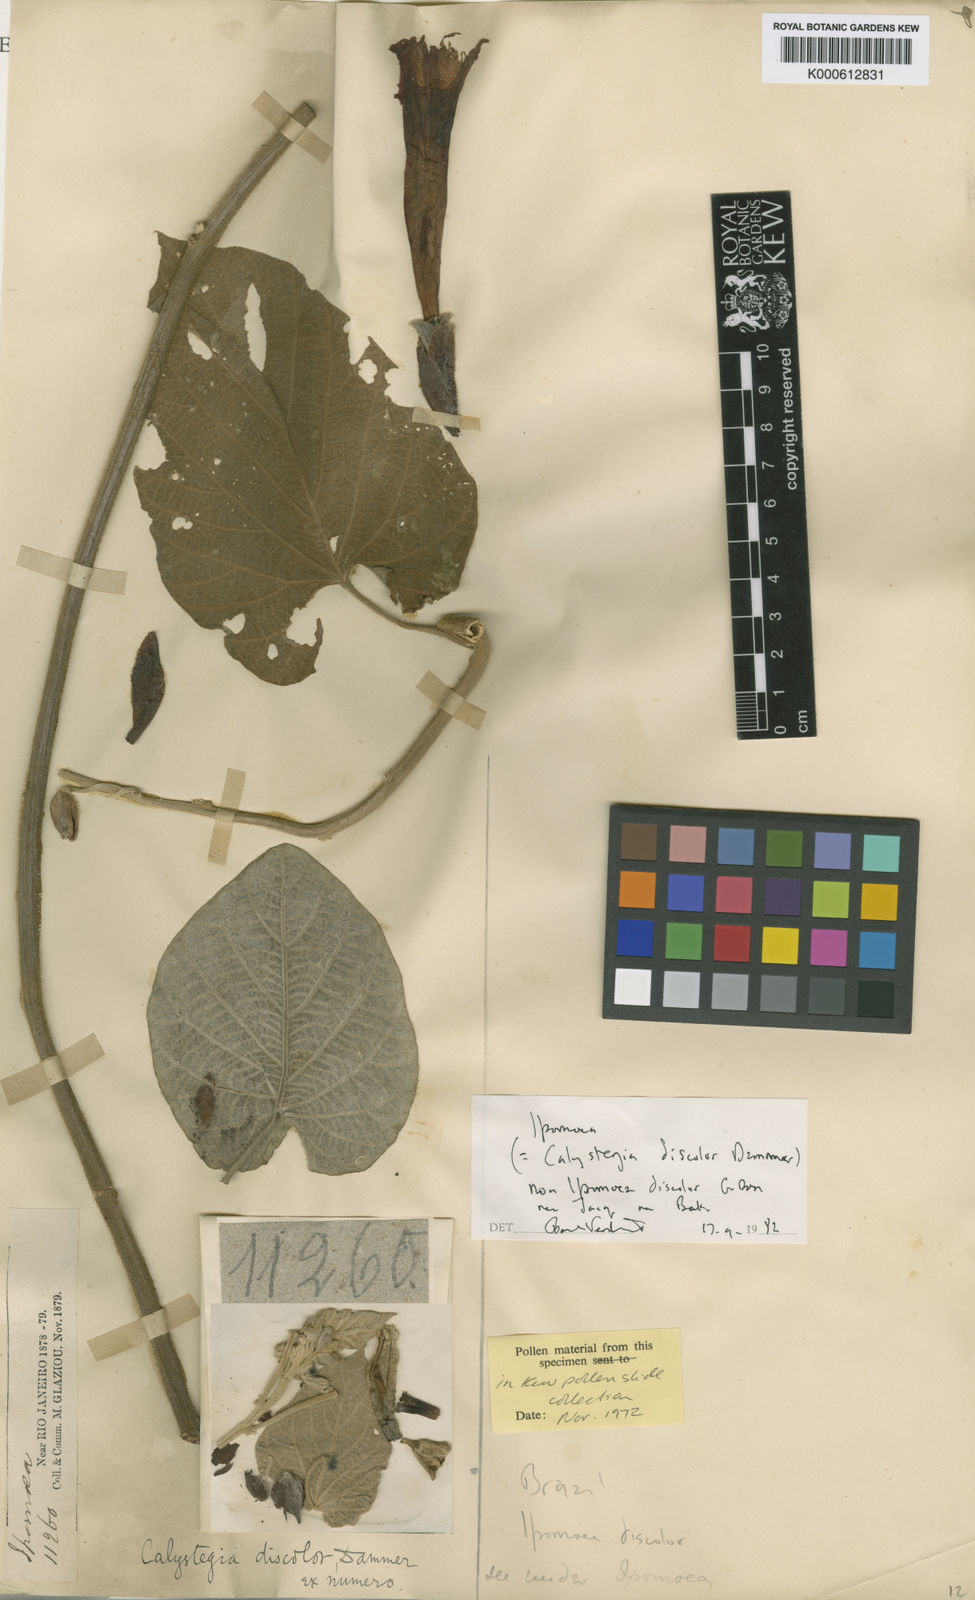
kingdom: Plantae
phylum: Tracheophyta
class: Magnoliopsida
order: Solanales
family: Convolvulaceae
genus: Ipomoea
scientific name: Ipomoea mauritiana
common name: Mauritanian convolvulus
